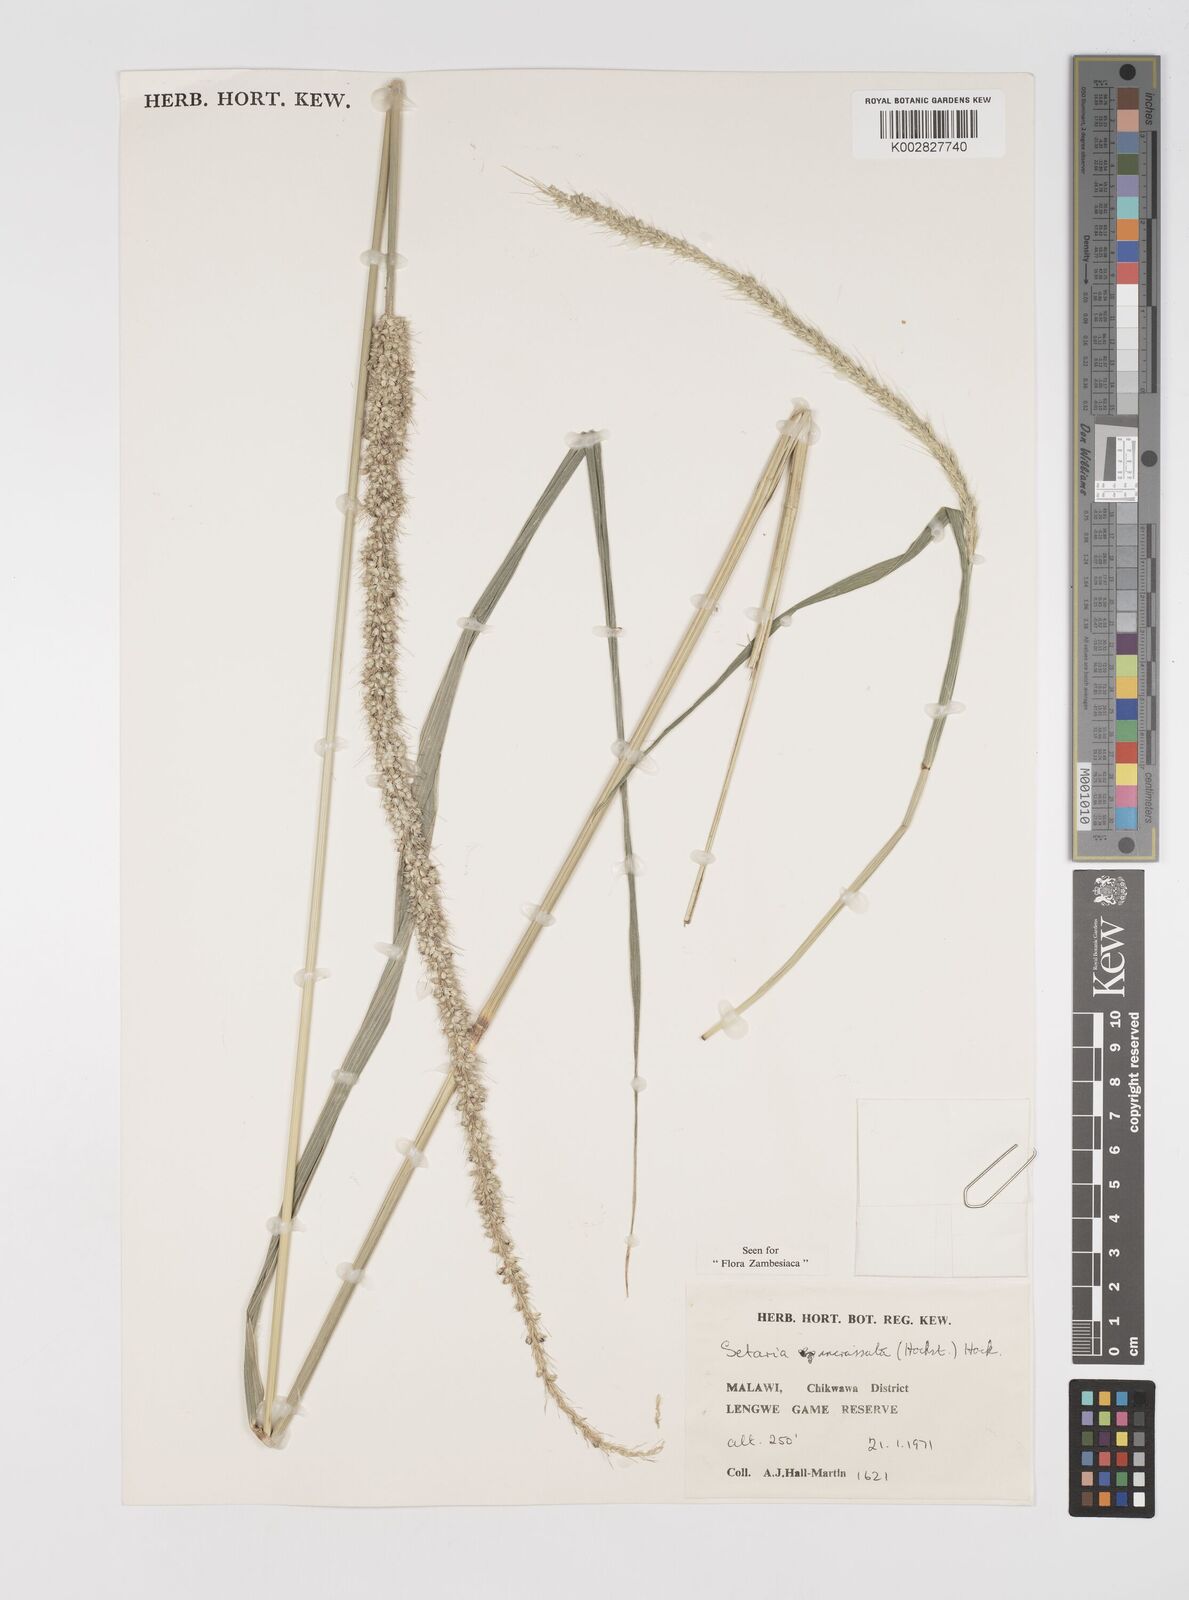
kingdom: Plantae
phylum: Tracheophyta
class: Liliopsida
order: Poales
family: Poaceae
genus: Setaria
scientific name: Setaria incrassata
